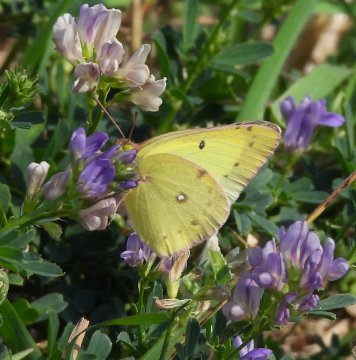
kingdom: Animalia
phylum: Arthropoda
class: Insecta
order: Lepidoptera
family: Pieridae
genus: Colias
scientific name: Colias philodice
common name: Clouded Sulphur
